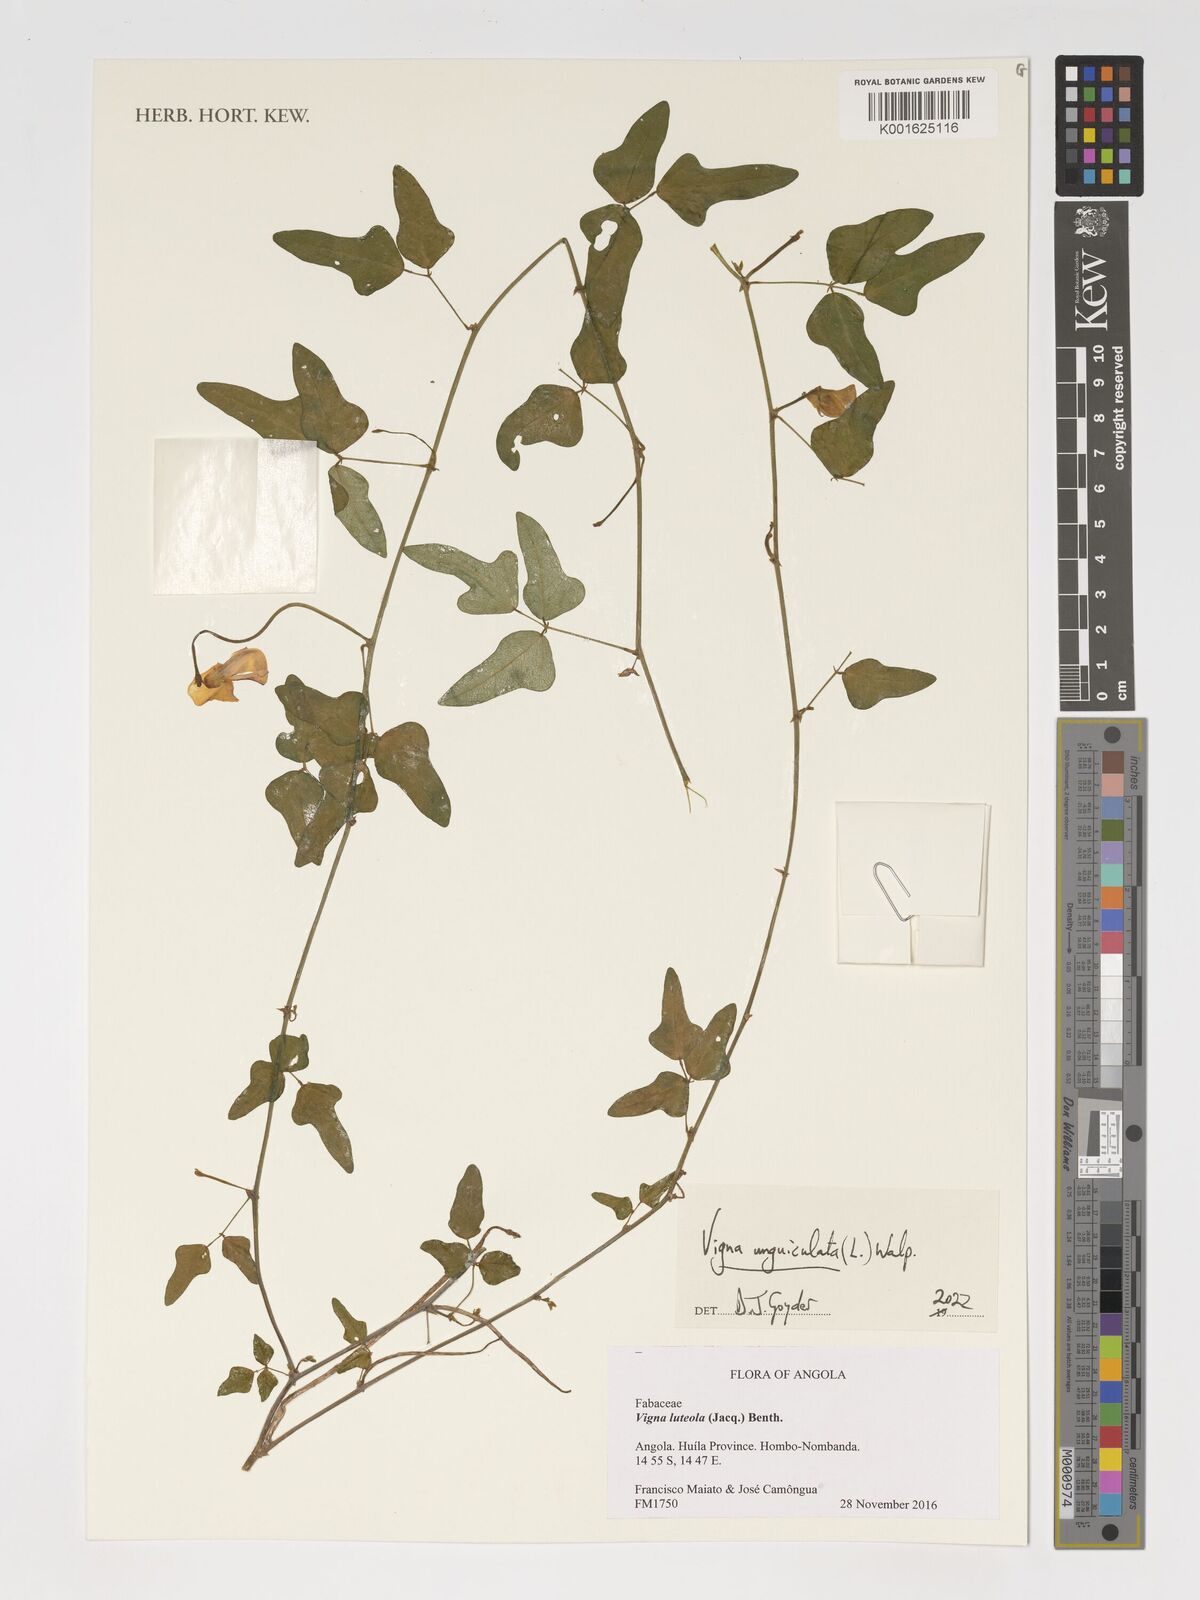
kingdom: Plantae
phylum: Tracheophyta
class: Magnoliopsida
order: Fabales
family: Fabaceae
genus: Vigna
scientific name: Vigna unguiculata
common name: Cowpea
